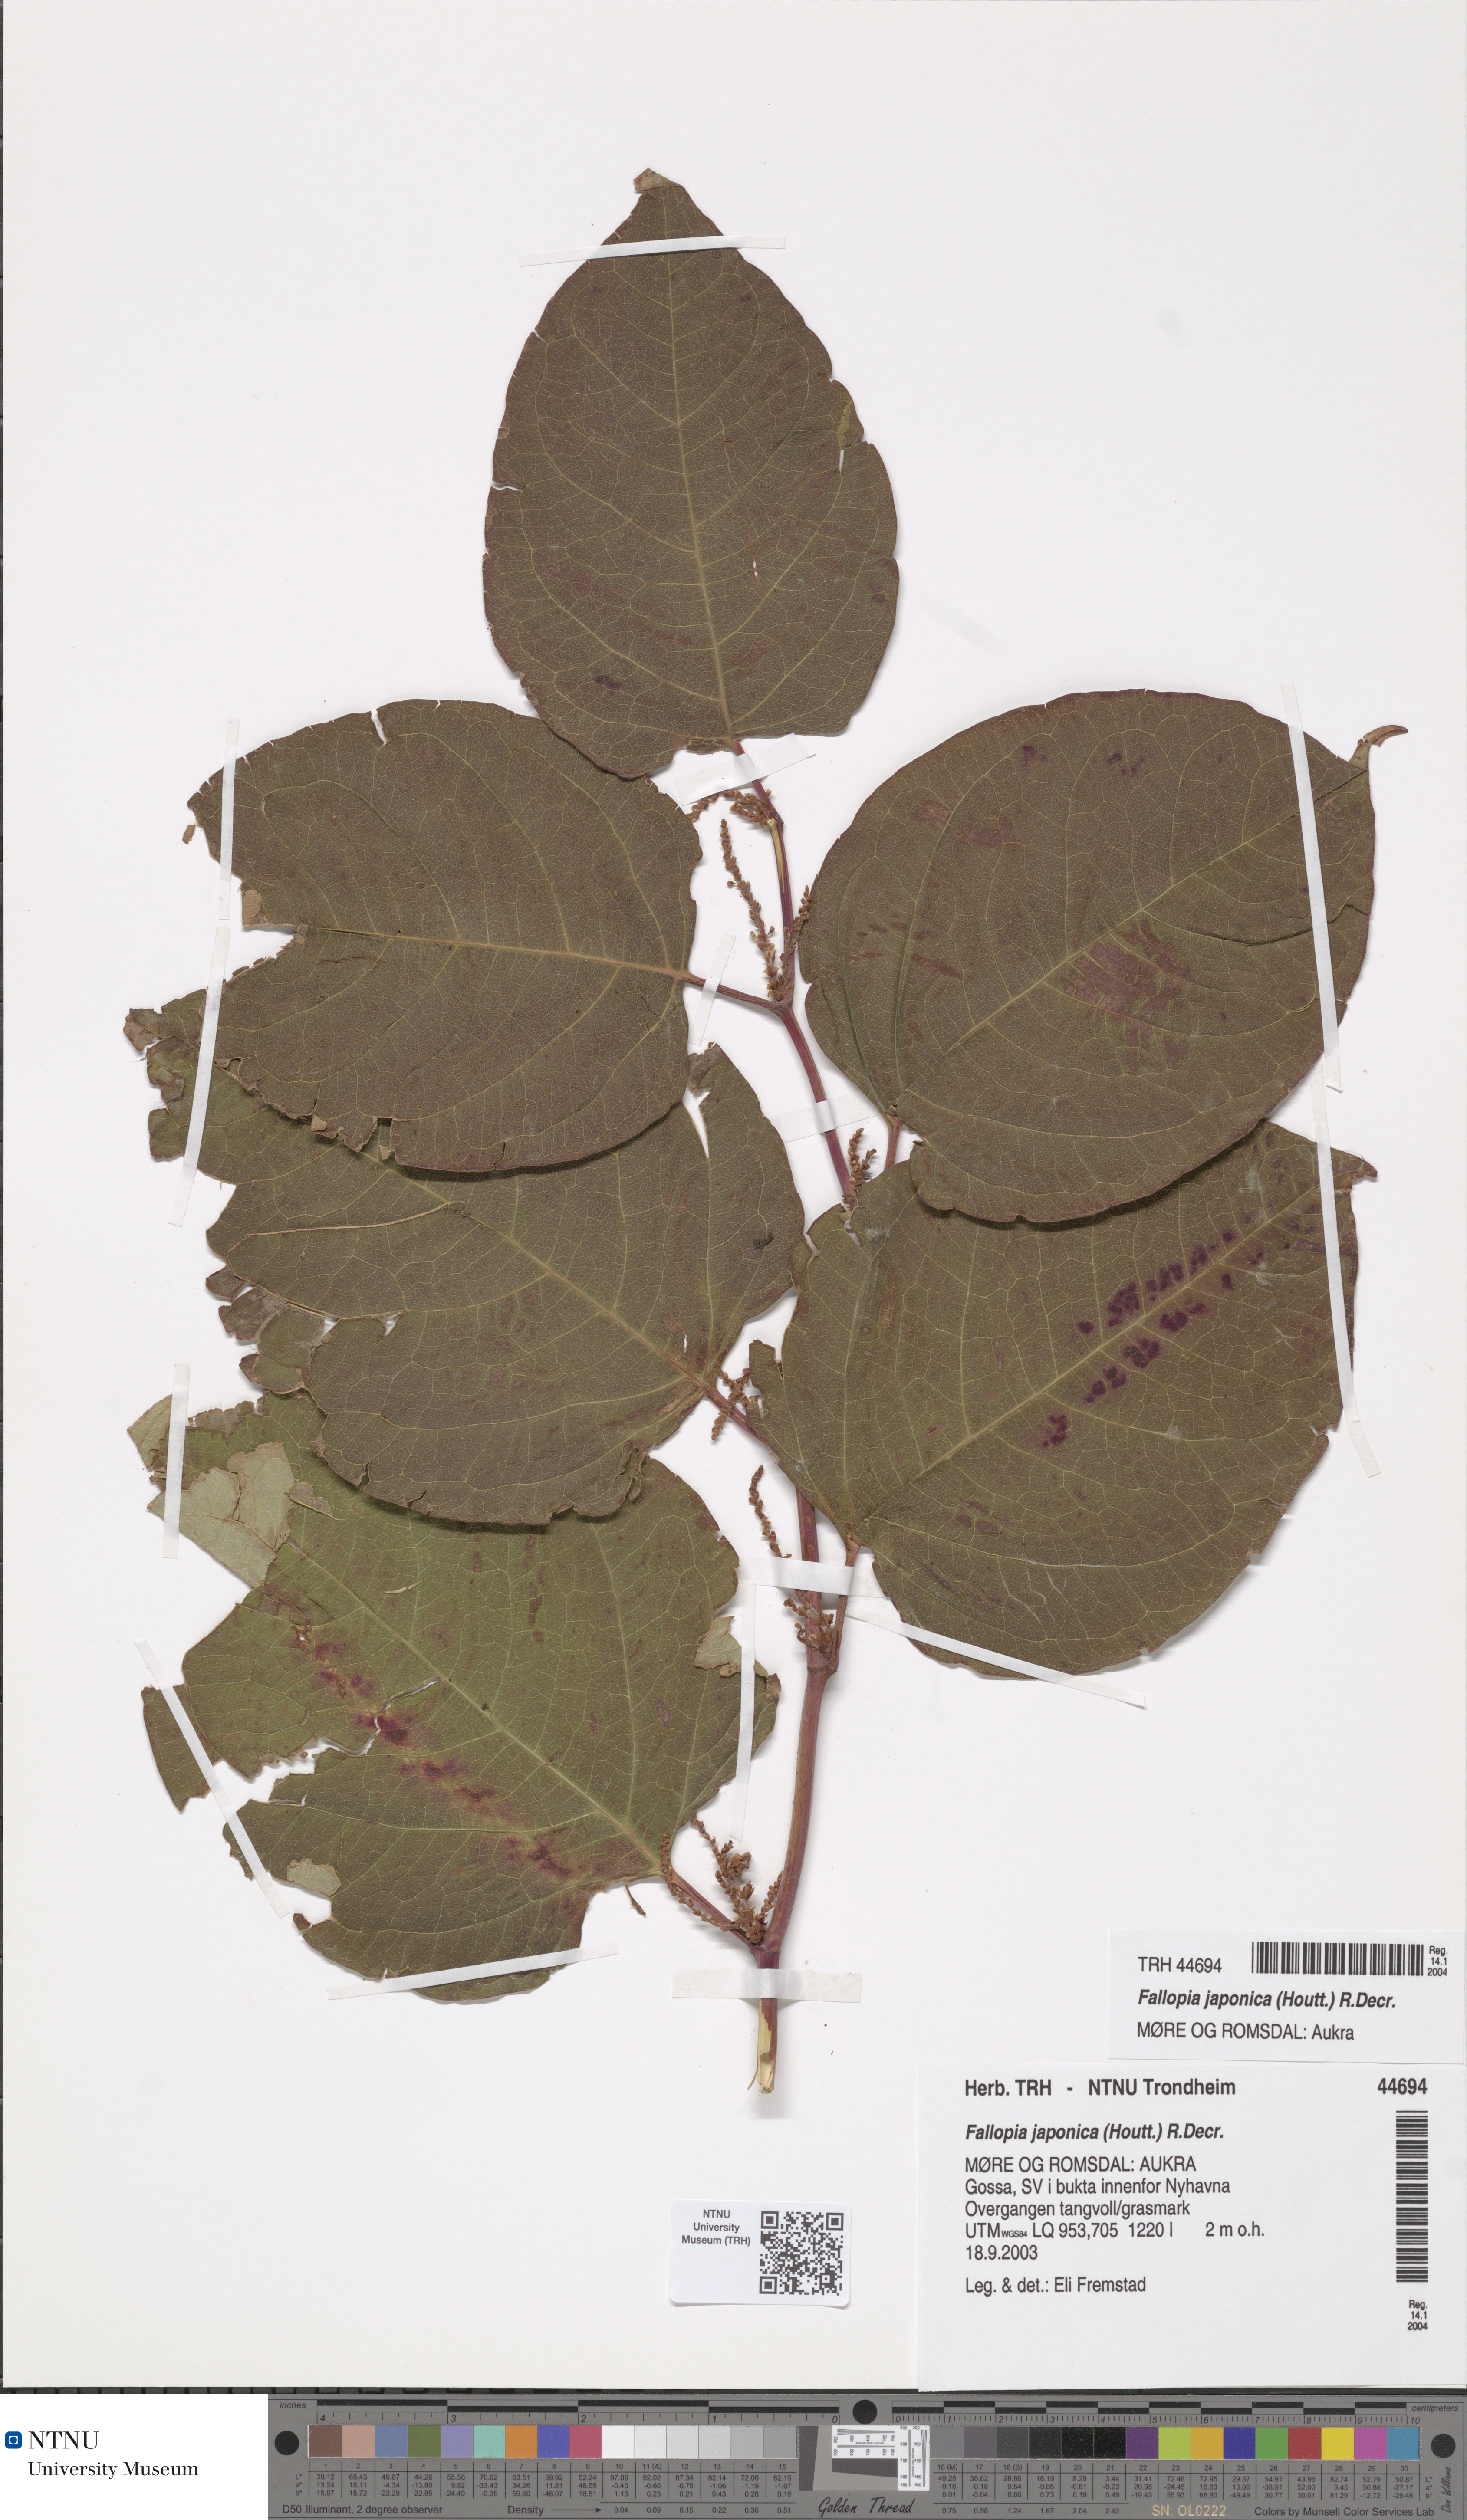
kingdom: Plantae
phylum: Tracheophyta
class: Magnoliopsida
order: Caryophyllales
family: Polygonaceae
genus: Reynoutria
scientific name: Reynoutria japonica
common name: Japanese knotweed
